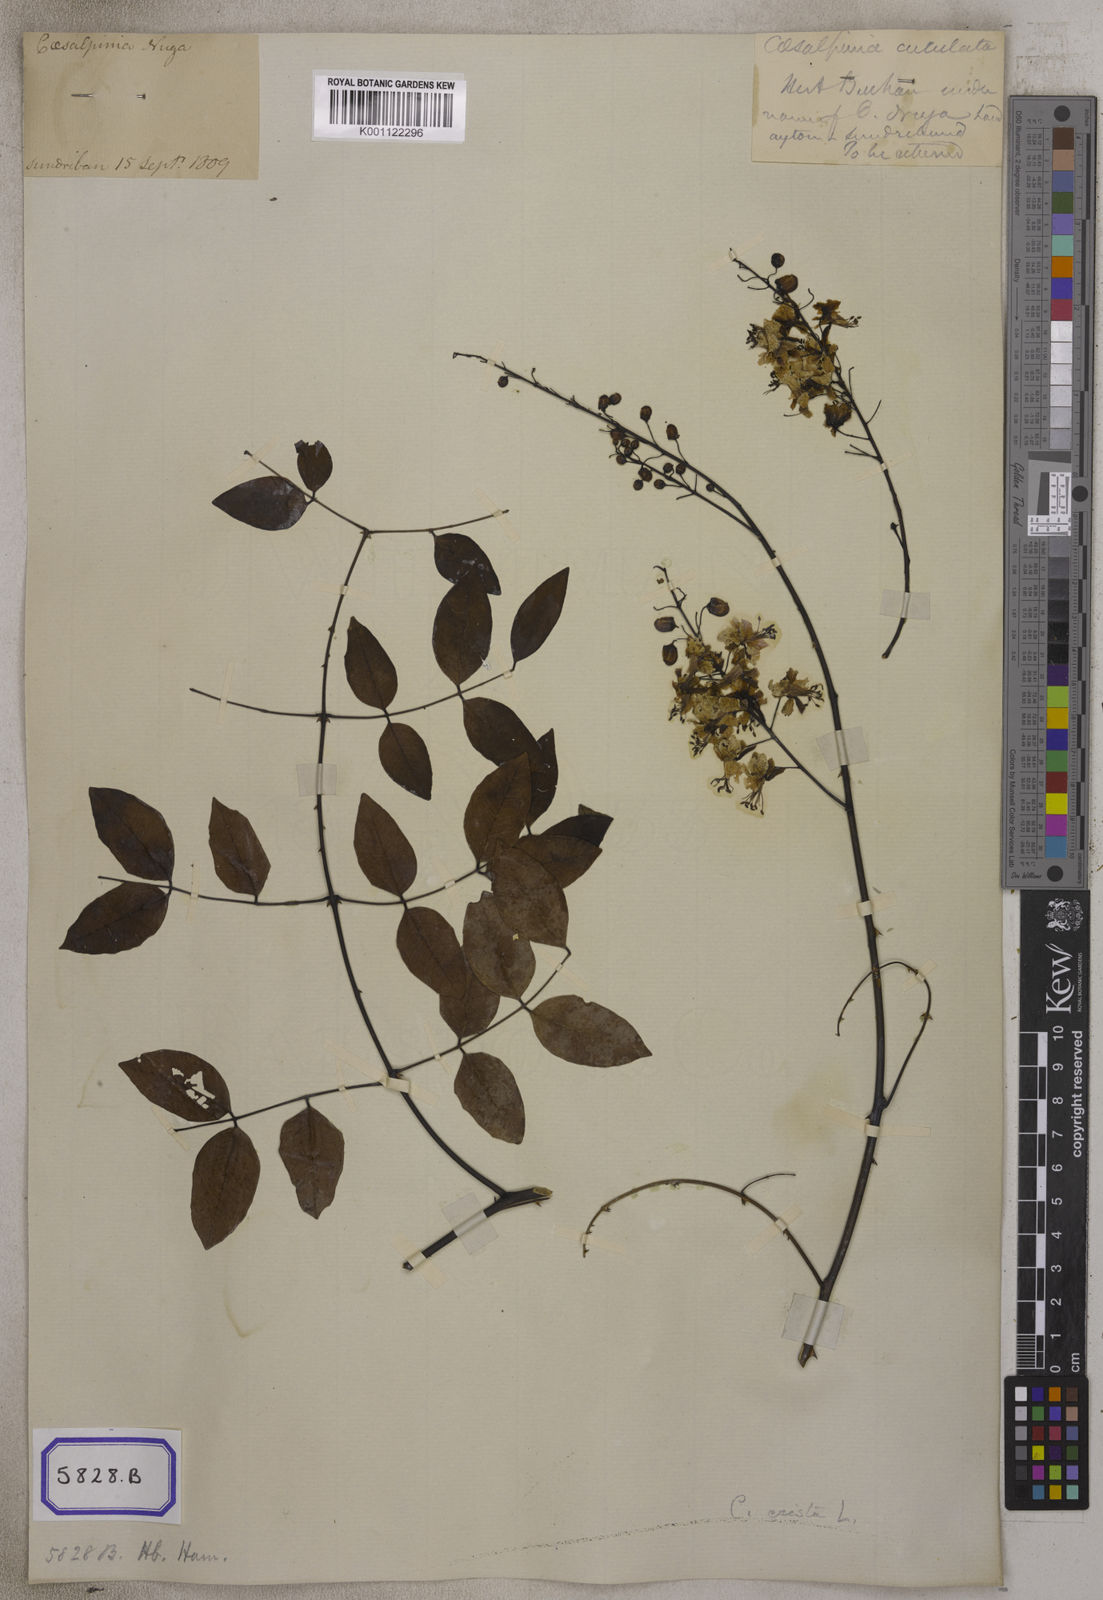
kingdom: Plantae
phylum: Tracheophyta
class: Magnoliopsida
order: Fabales
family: Fabaceae
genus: Mezoneuron
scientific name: Mezoneuron cucullatum
